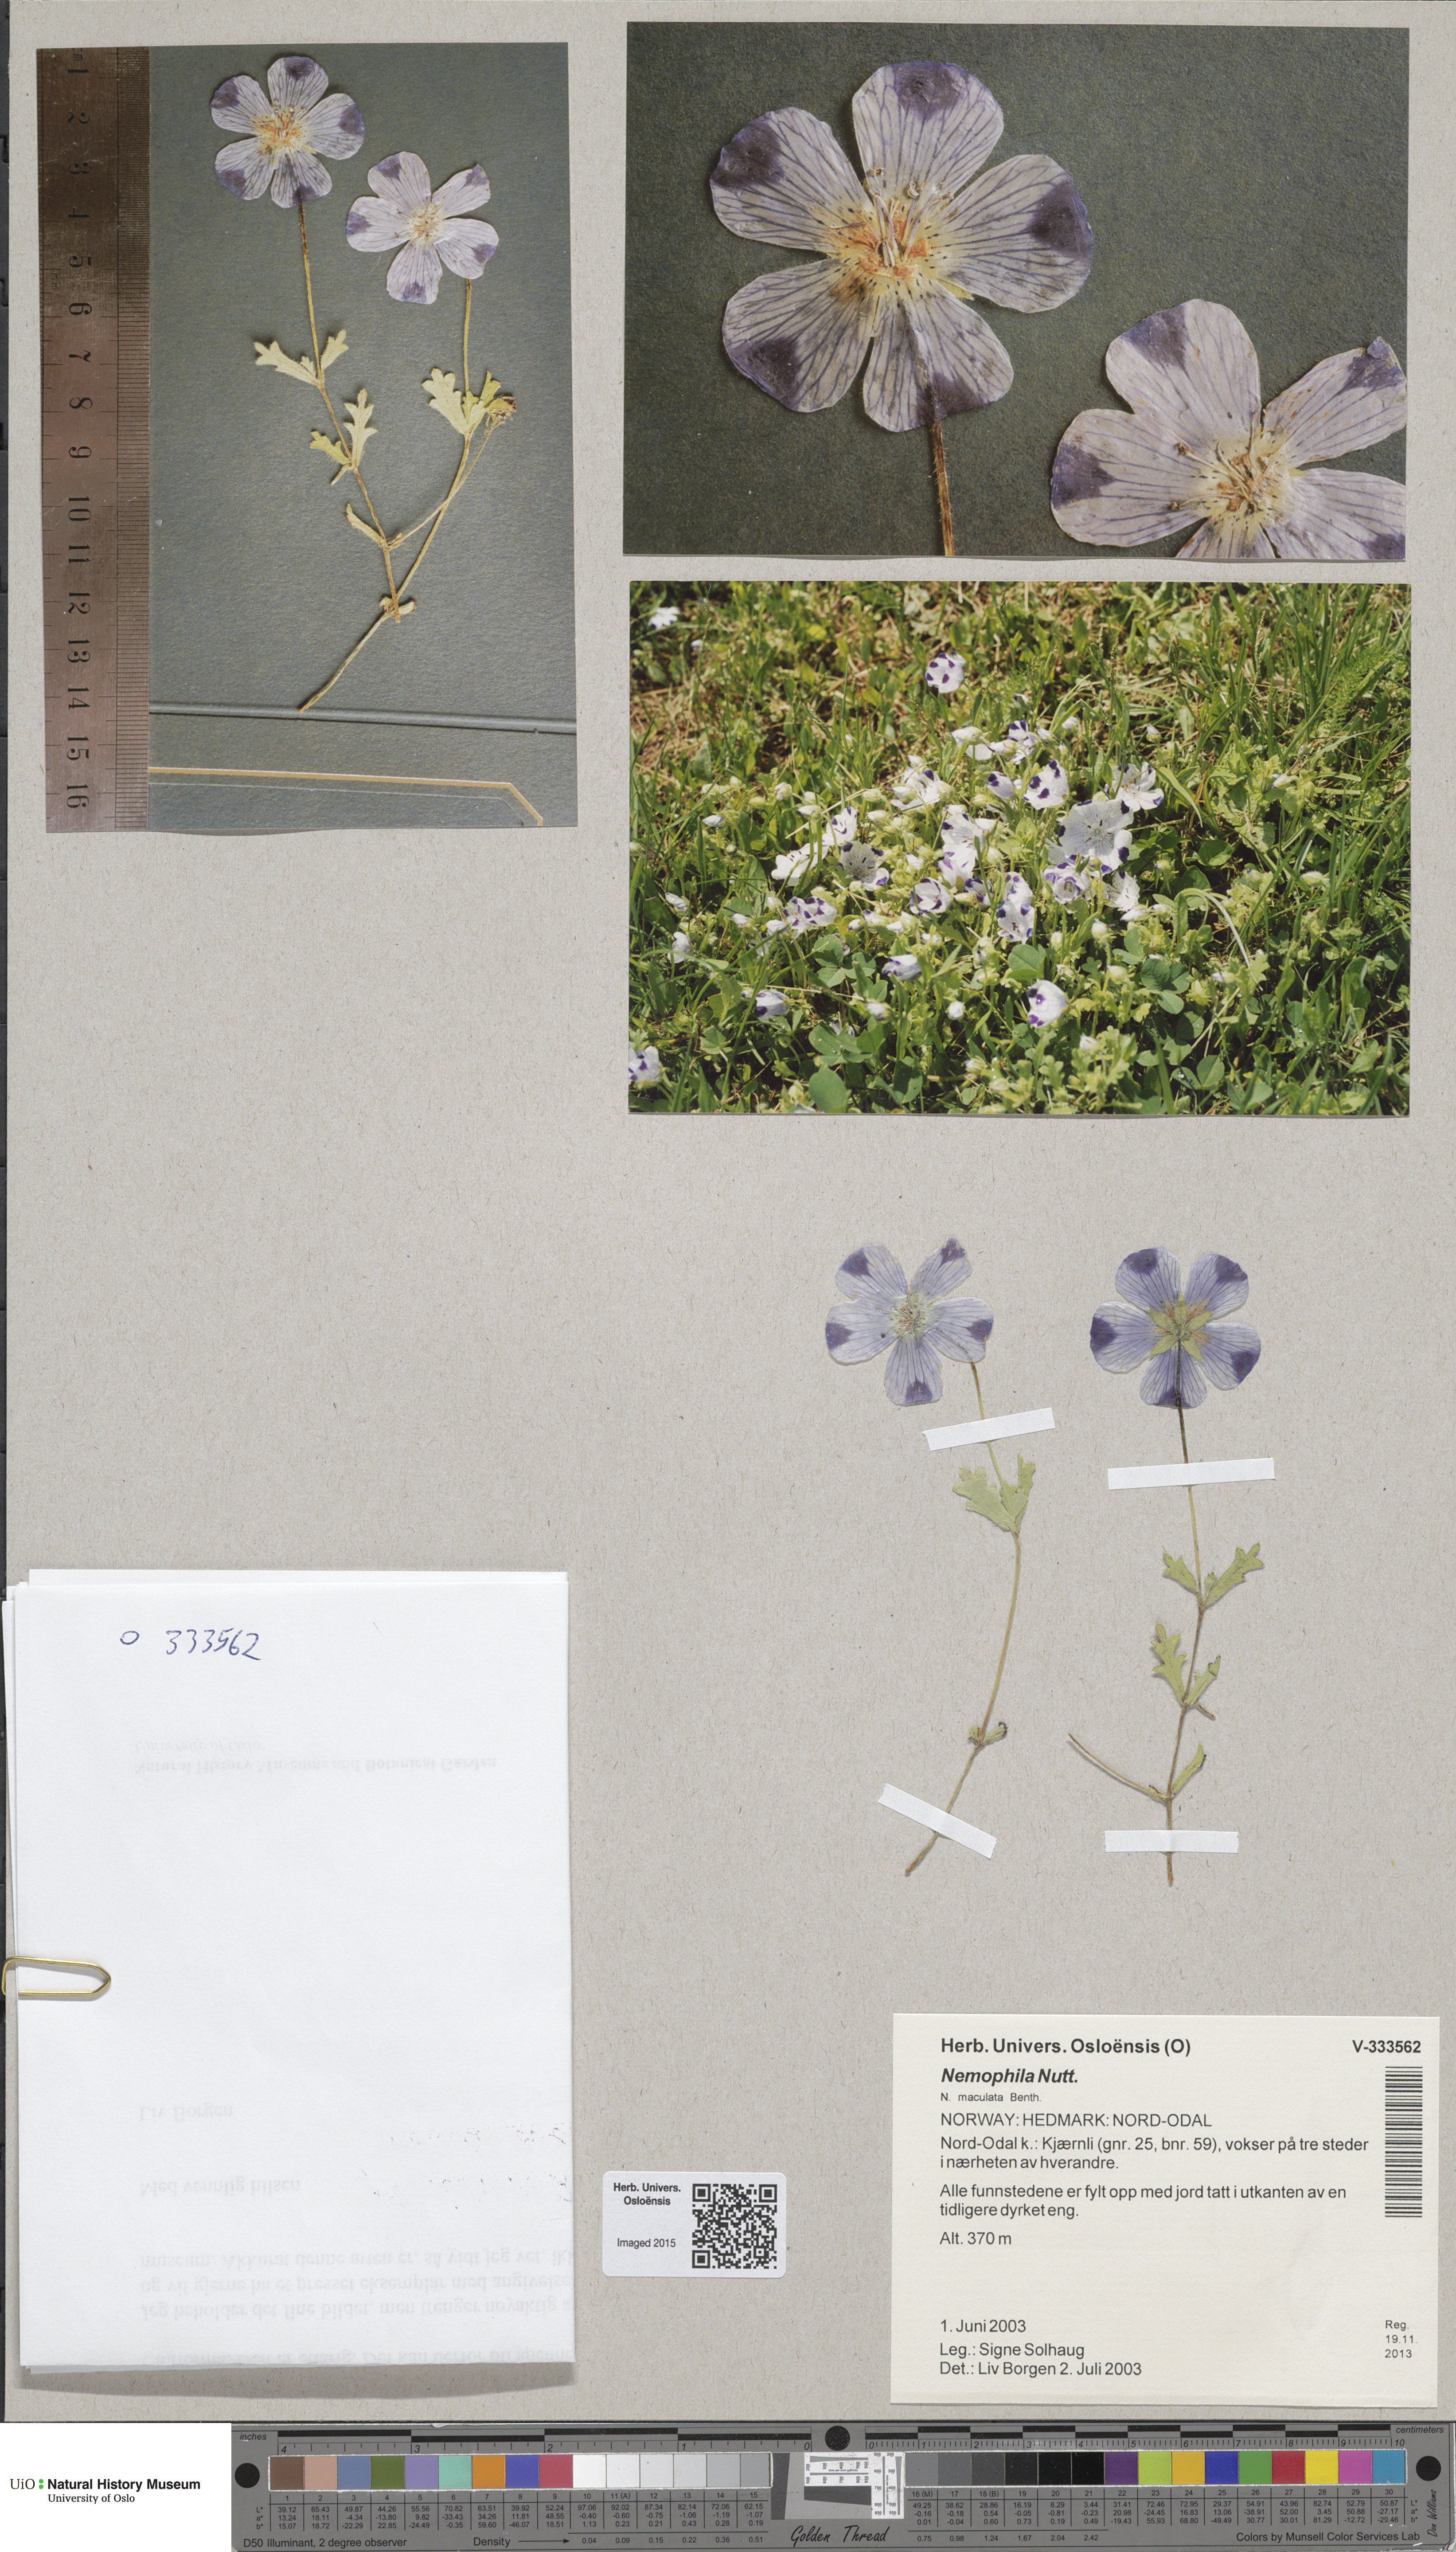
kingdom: Plantae
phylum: Tracheophyta
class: Magnoliopsida
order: Boraginales
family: Hydrophyllaceae
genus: Nemophila
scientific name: Nemophila
